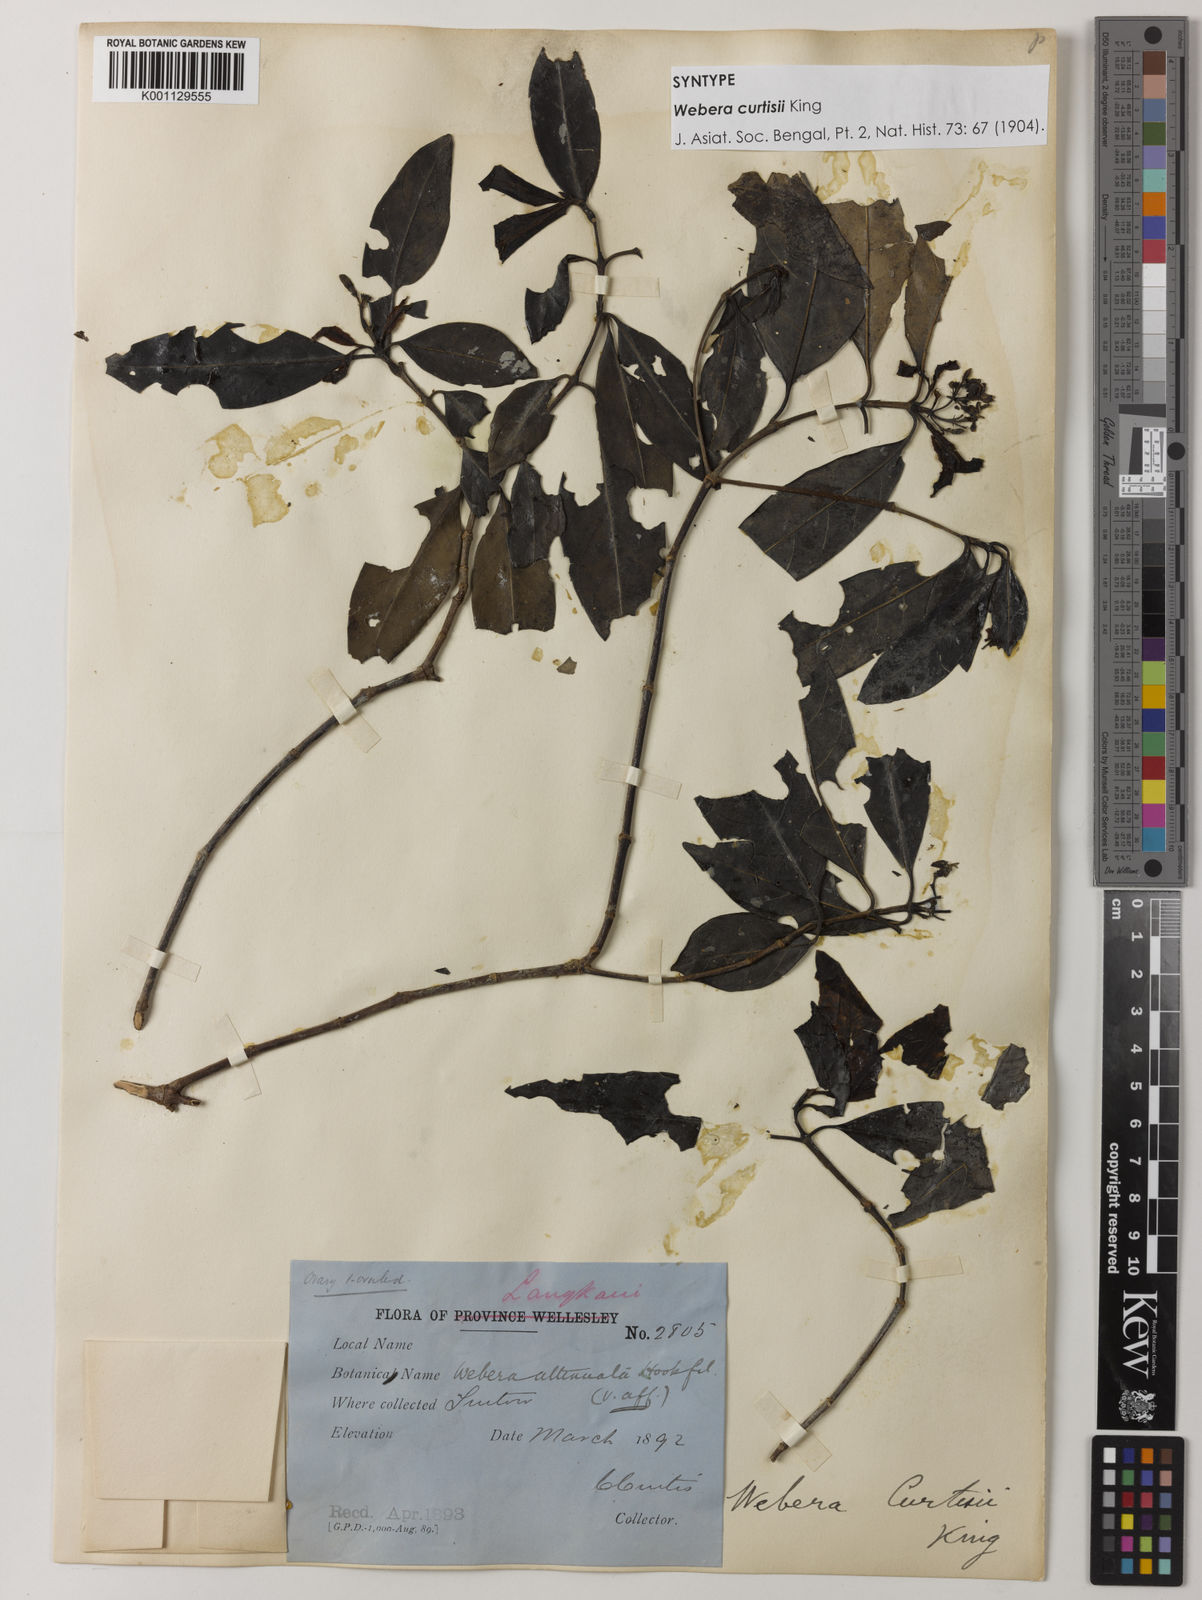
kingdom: Plantae
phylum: Tracheophyta
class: Magnoliopsida
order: Gentianales
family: Rubiaceae
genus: Tarenna
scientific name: Tarenna curtisii
